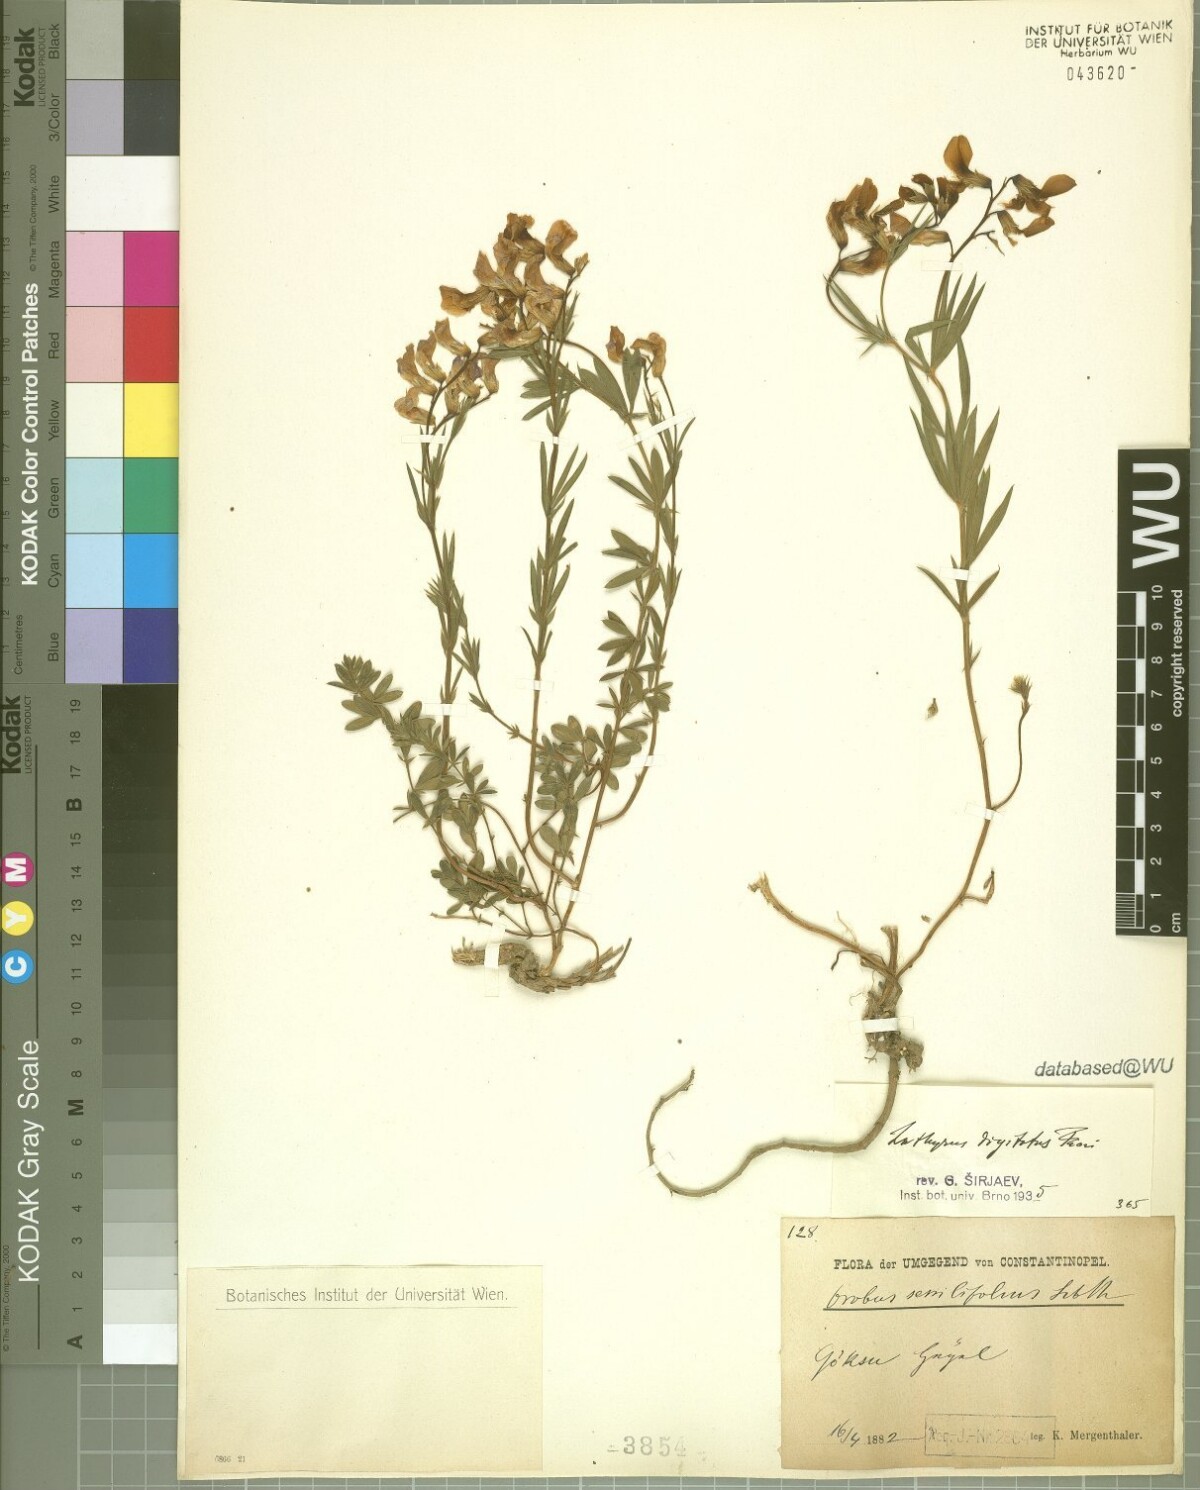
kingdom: Plantae
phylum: Tracheophyta
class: Magnoliopsida
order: Fabales
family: Fabaceae
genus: Lathyrus
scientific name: Lathyrus digitatus
